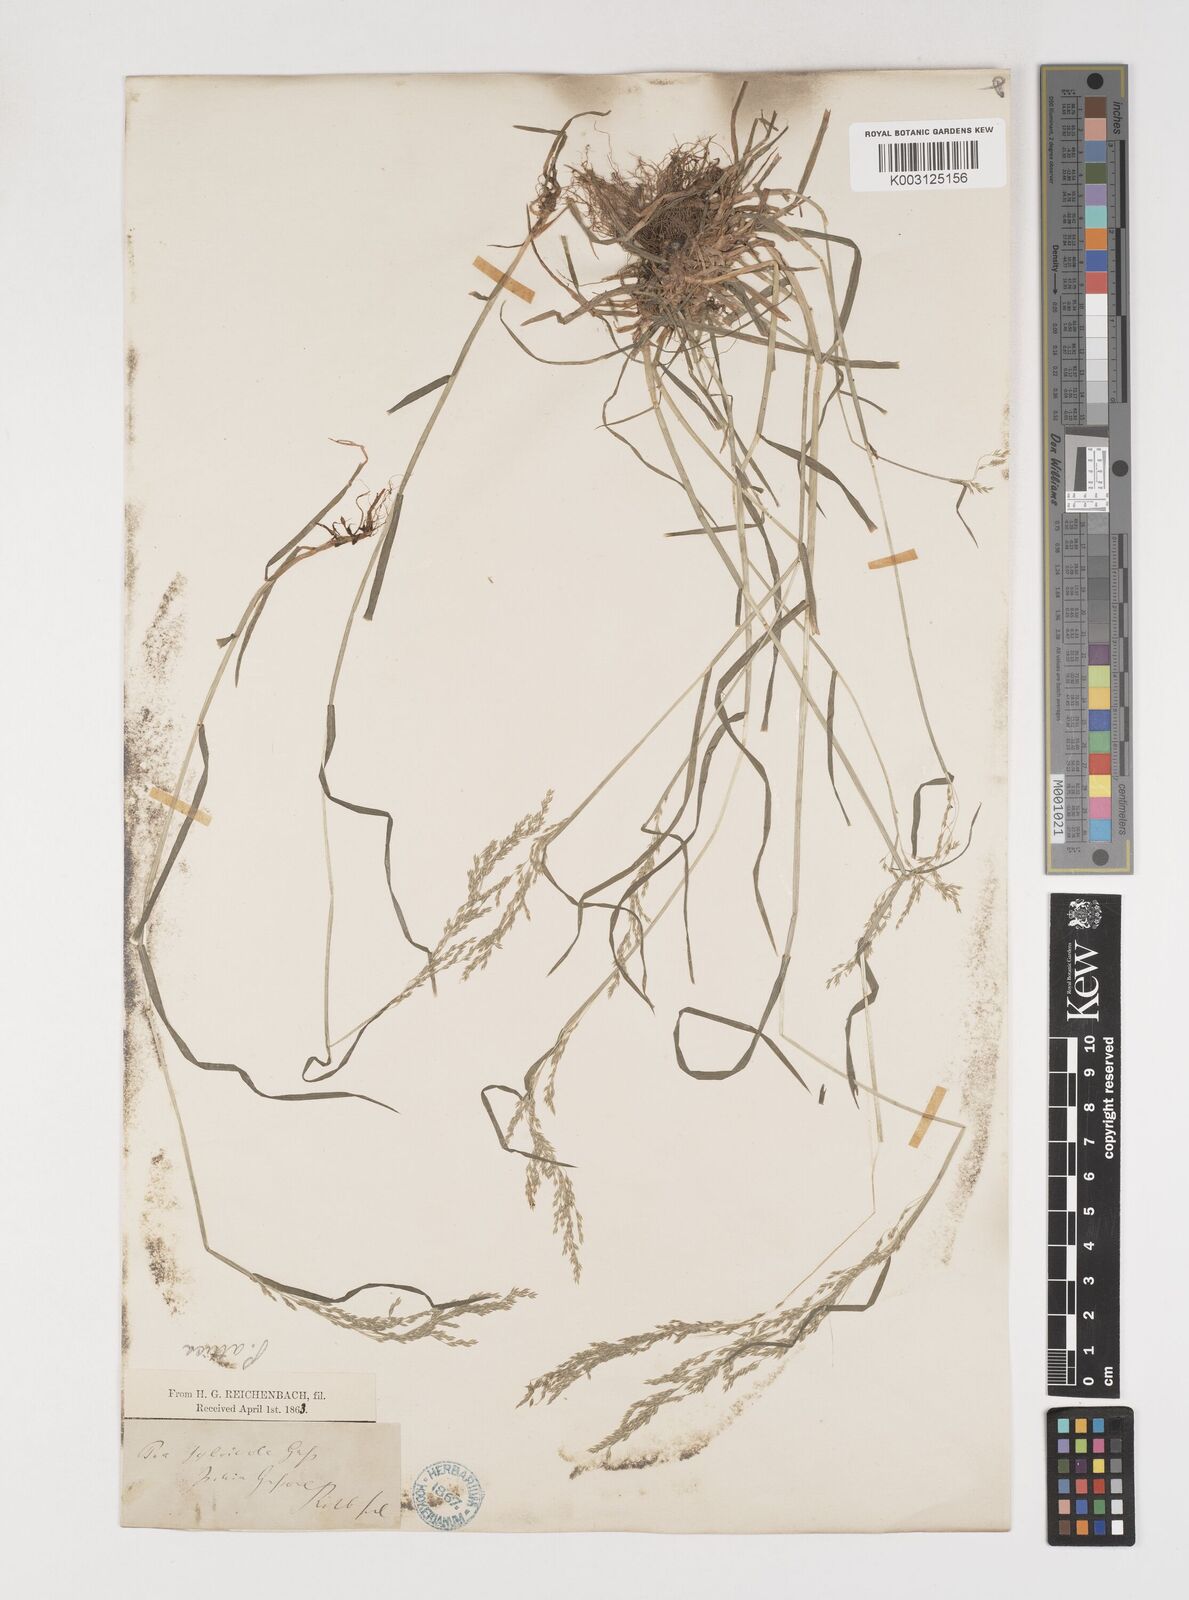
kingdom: Plantae
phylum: Tracheophyta
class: Liliopsida
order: Poales
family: Poaceae
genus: Poa
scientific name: Poa trivialis
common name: Rough bluegrass
